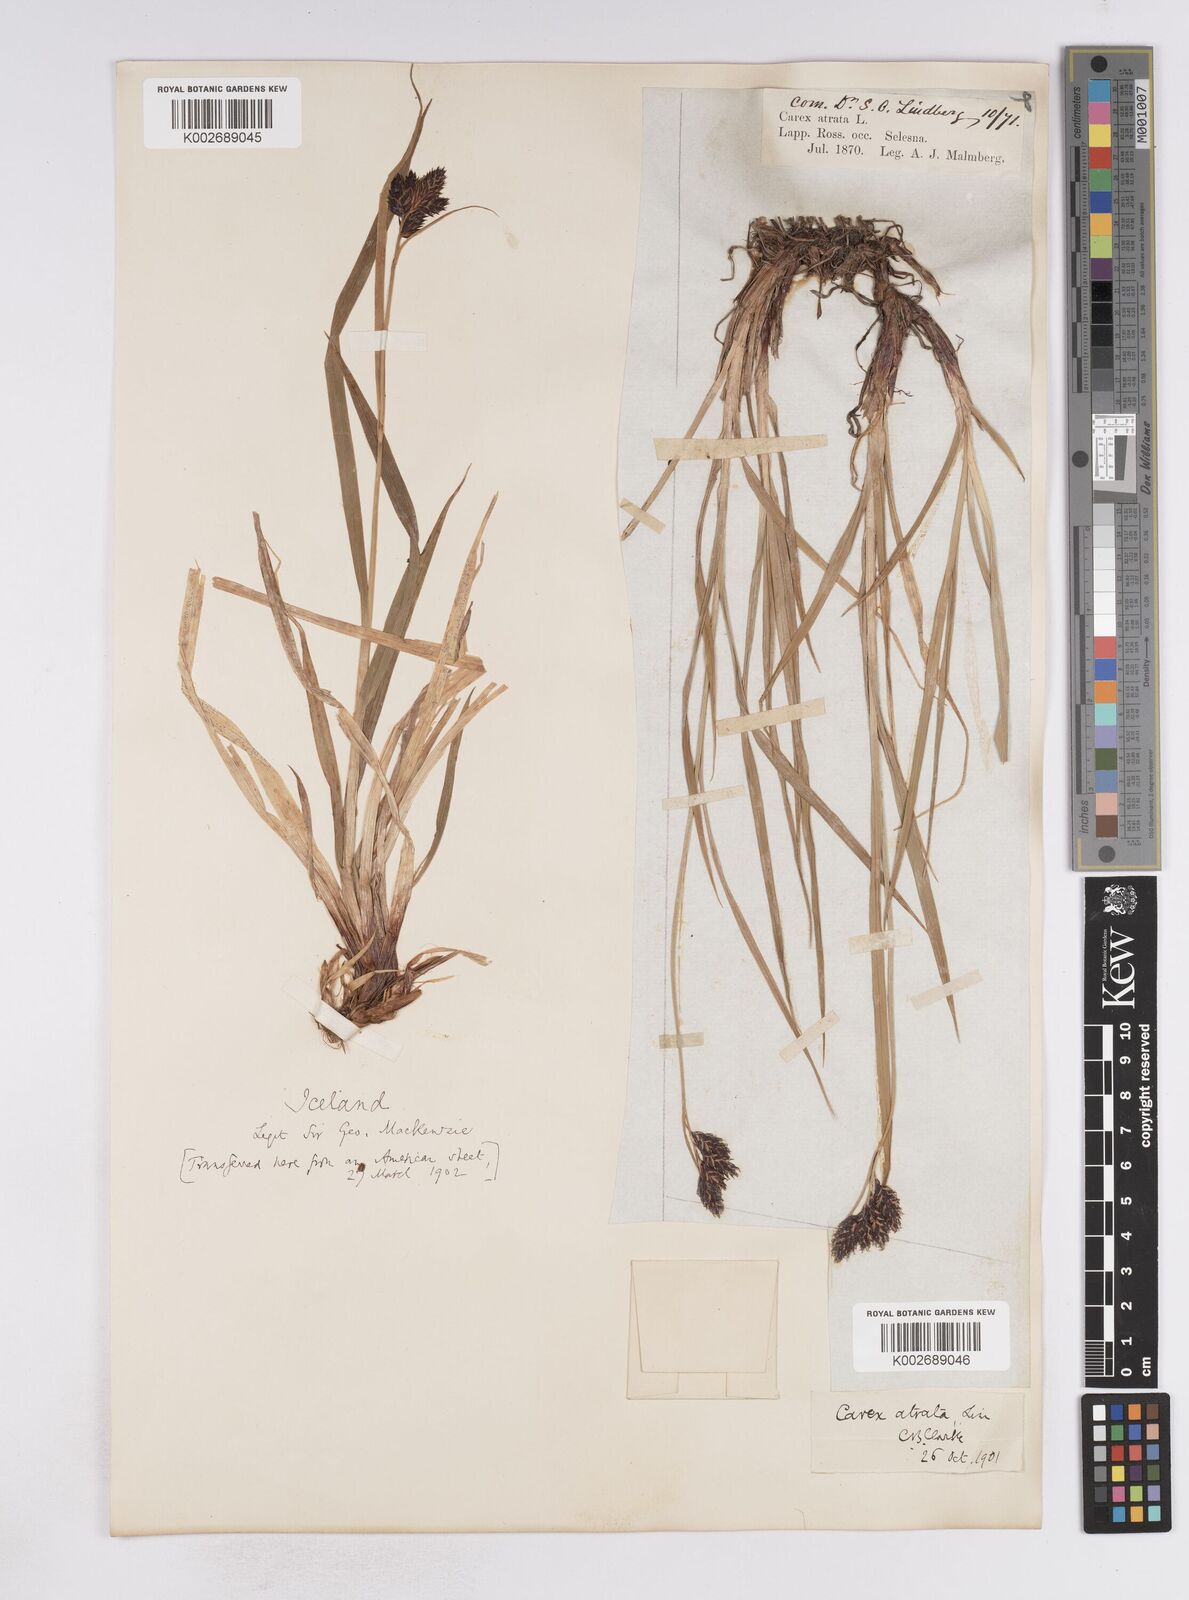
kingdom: Plantae
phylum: Tracheophyta
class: Liliopsida
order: Poales
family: Cyperaceae
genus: Carex
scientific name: Carex atrata
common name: Black alpine sedge
